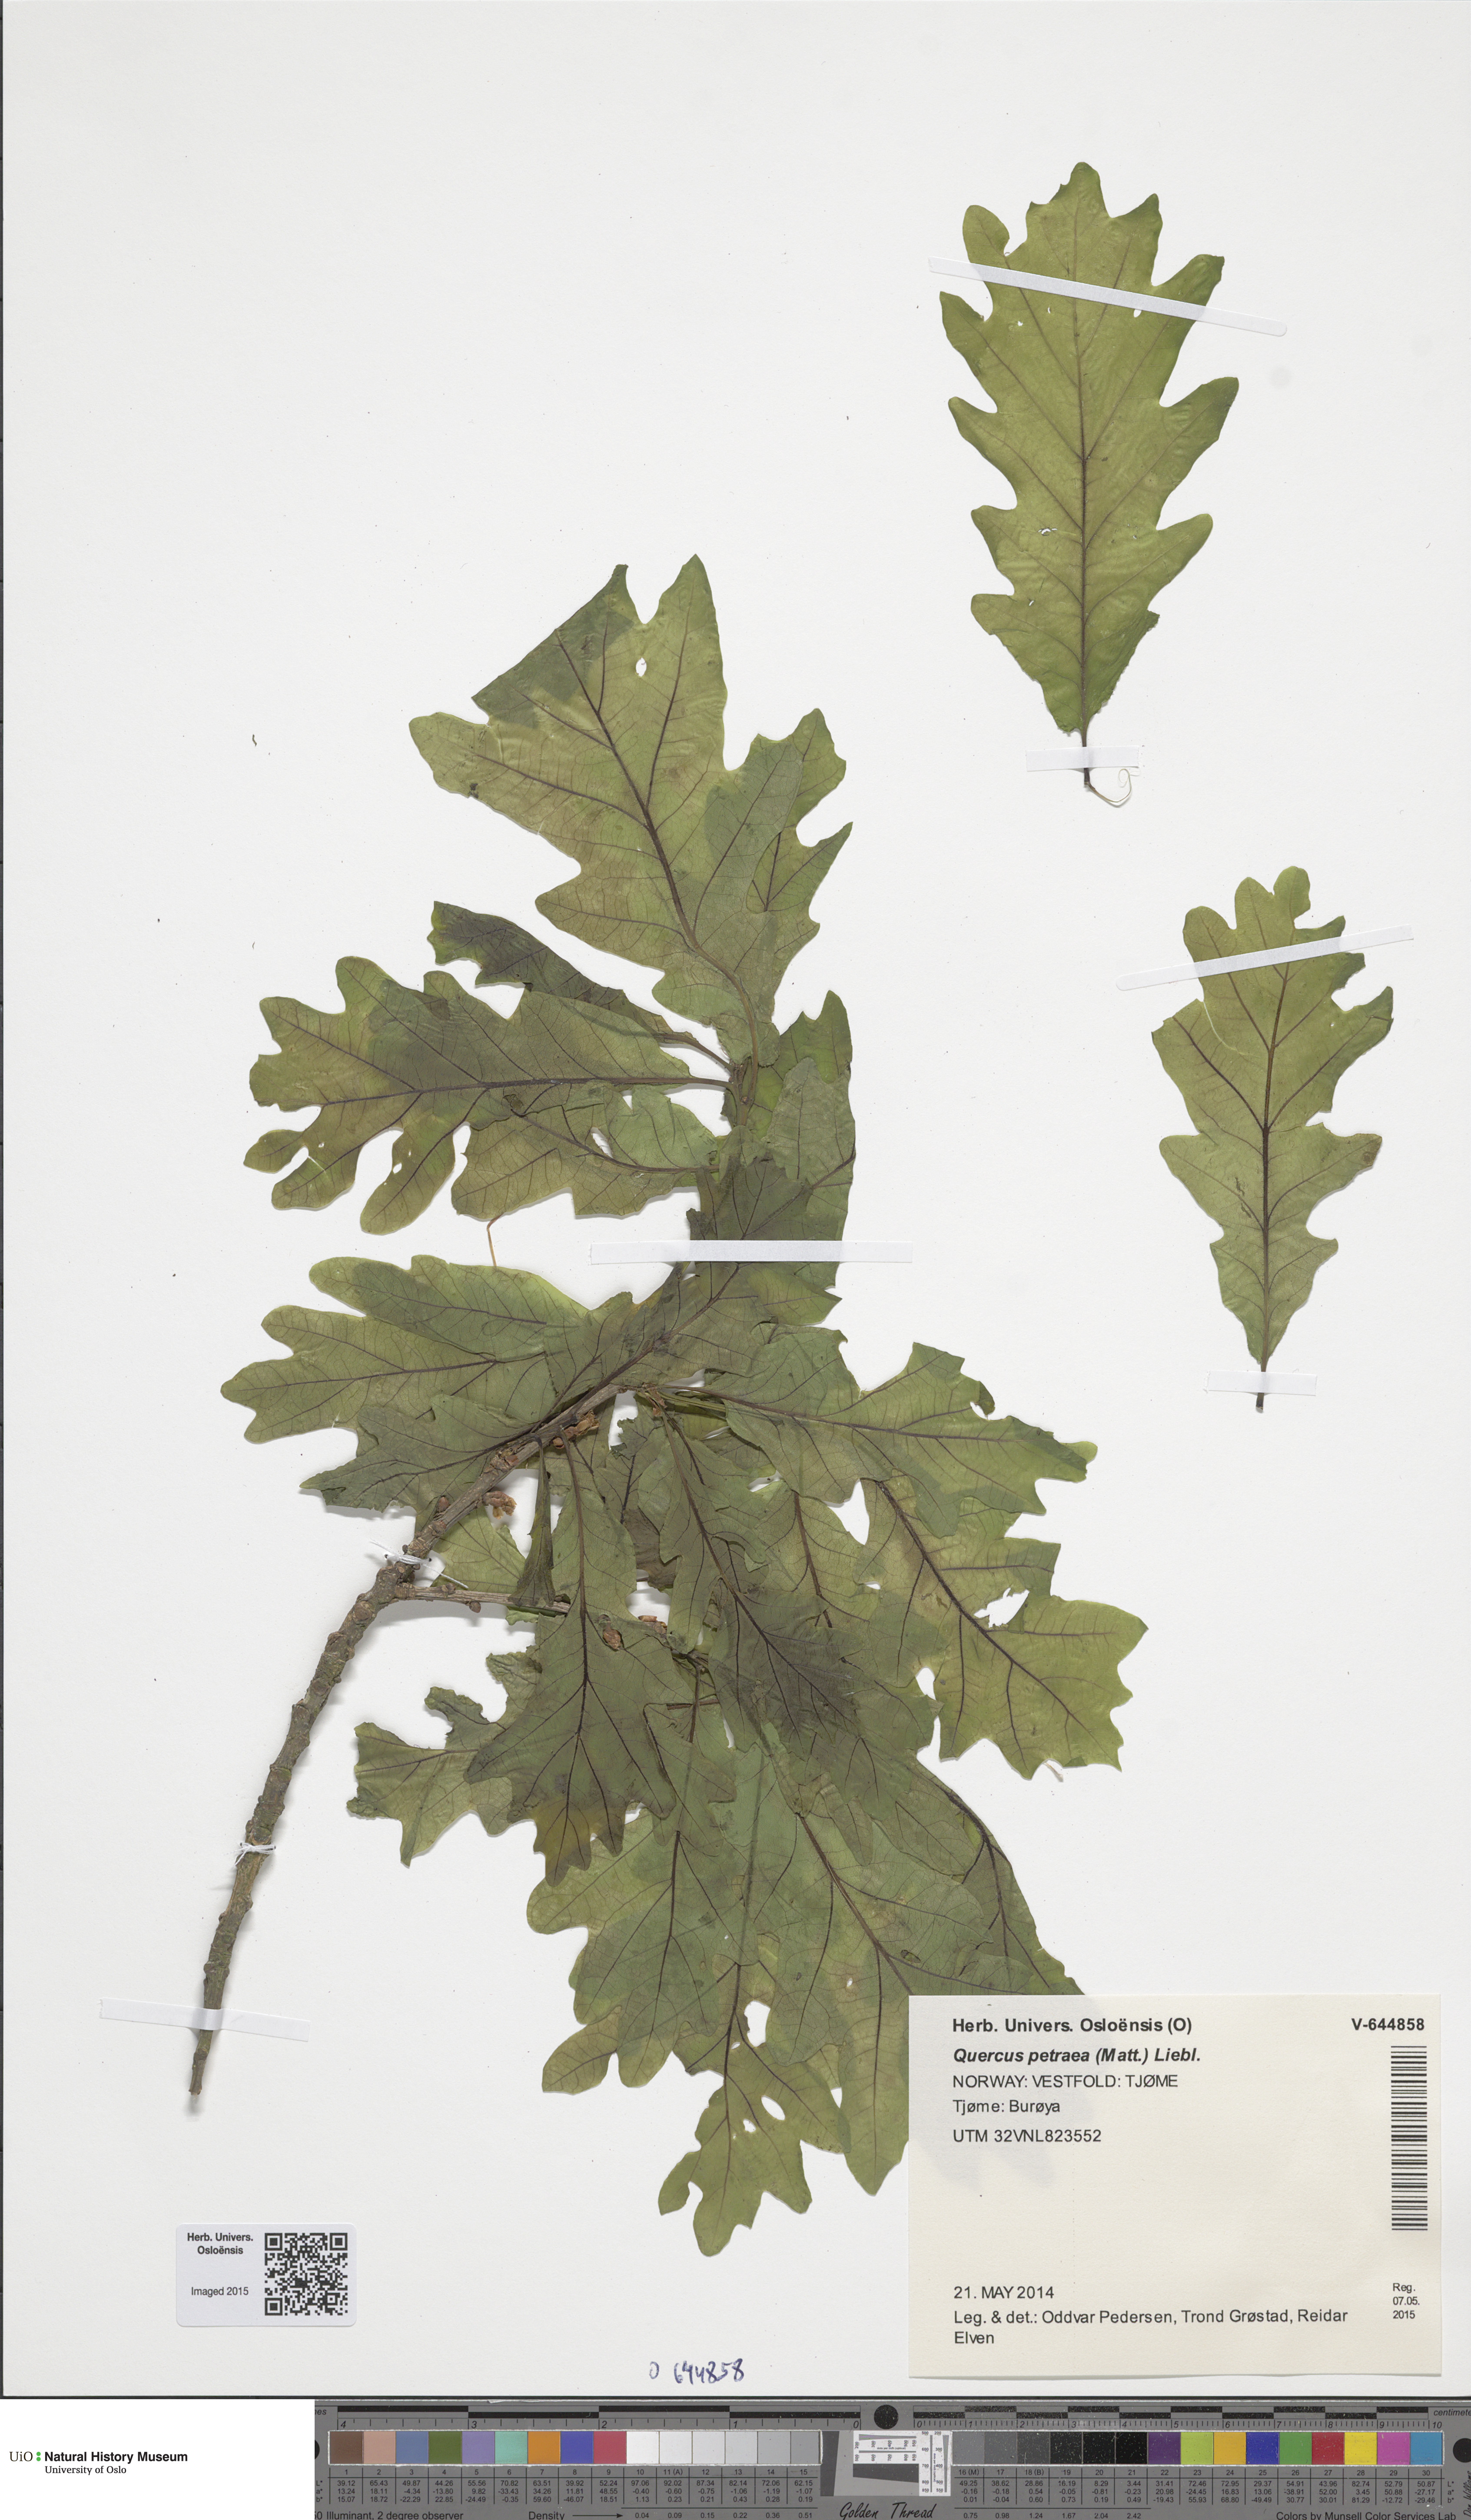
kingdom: Plantae
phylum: Tracheophyta
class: Magnoliopsida
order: Fagales
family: Fagaceae
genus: Quercus
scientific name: Quercus petraea
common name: Sessile oak
